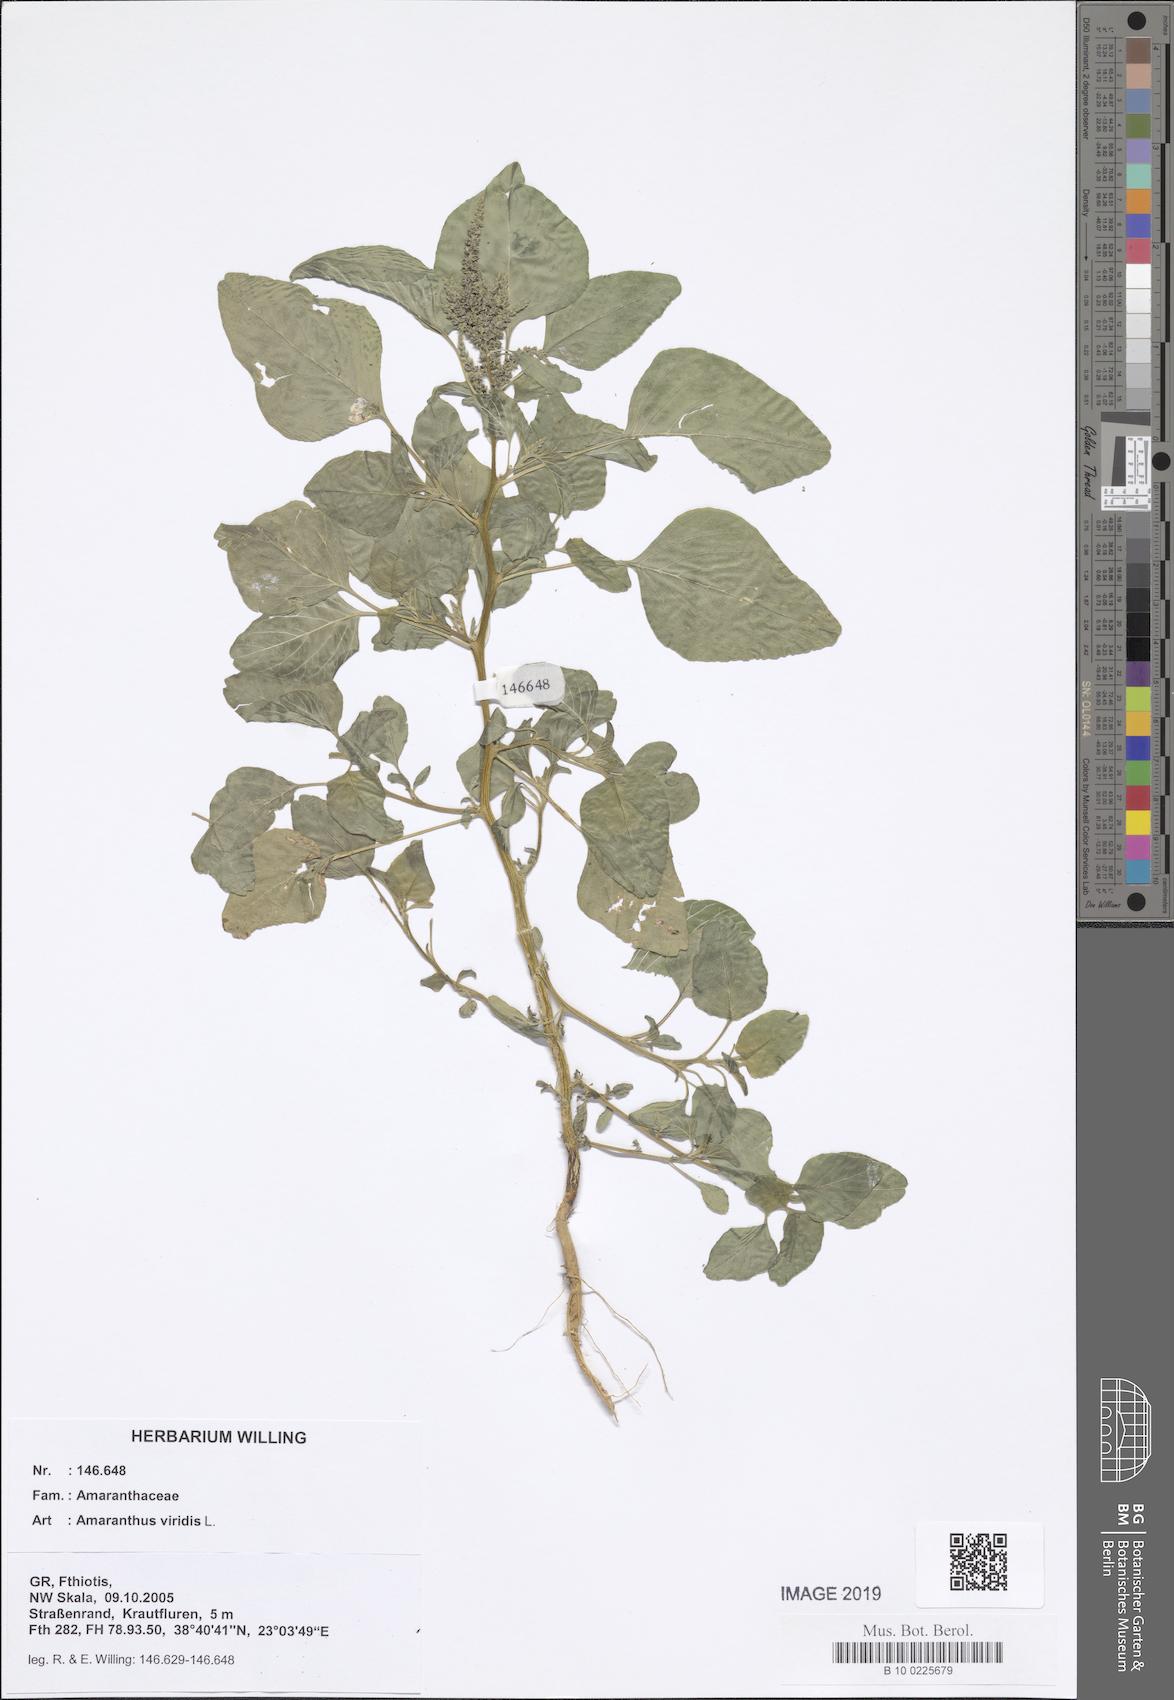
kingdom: Plantae
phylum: Tracheophyta
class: Magnoliopsida
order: Caryophyllales
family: Amaranthaceae
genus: Amaranthus
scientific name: Amaranthus viridis
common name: Slender amaranth
